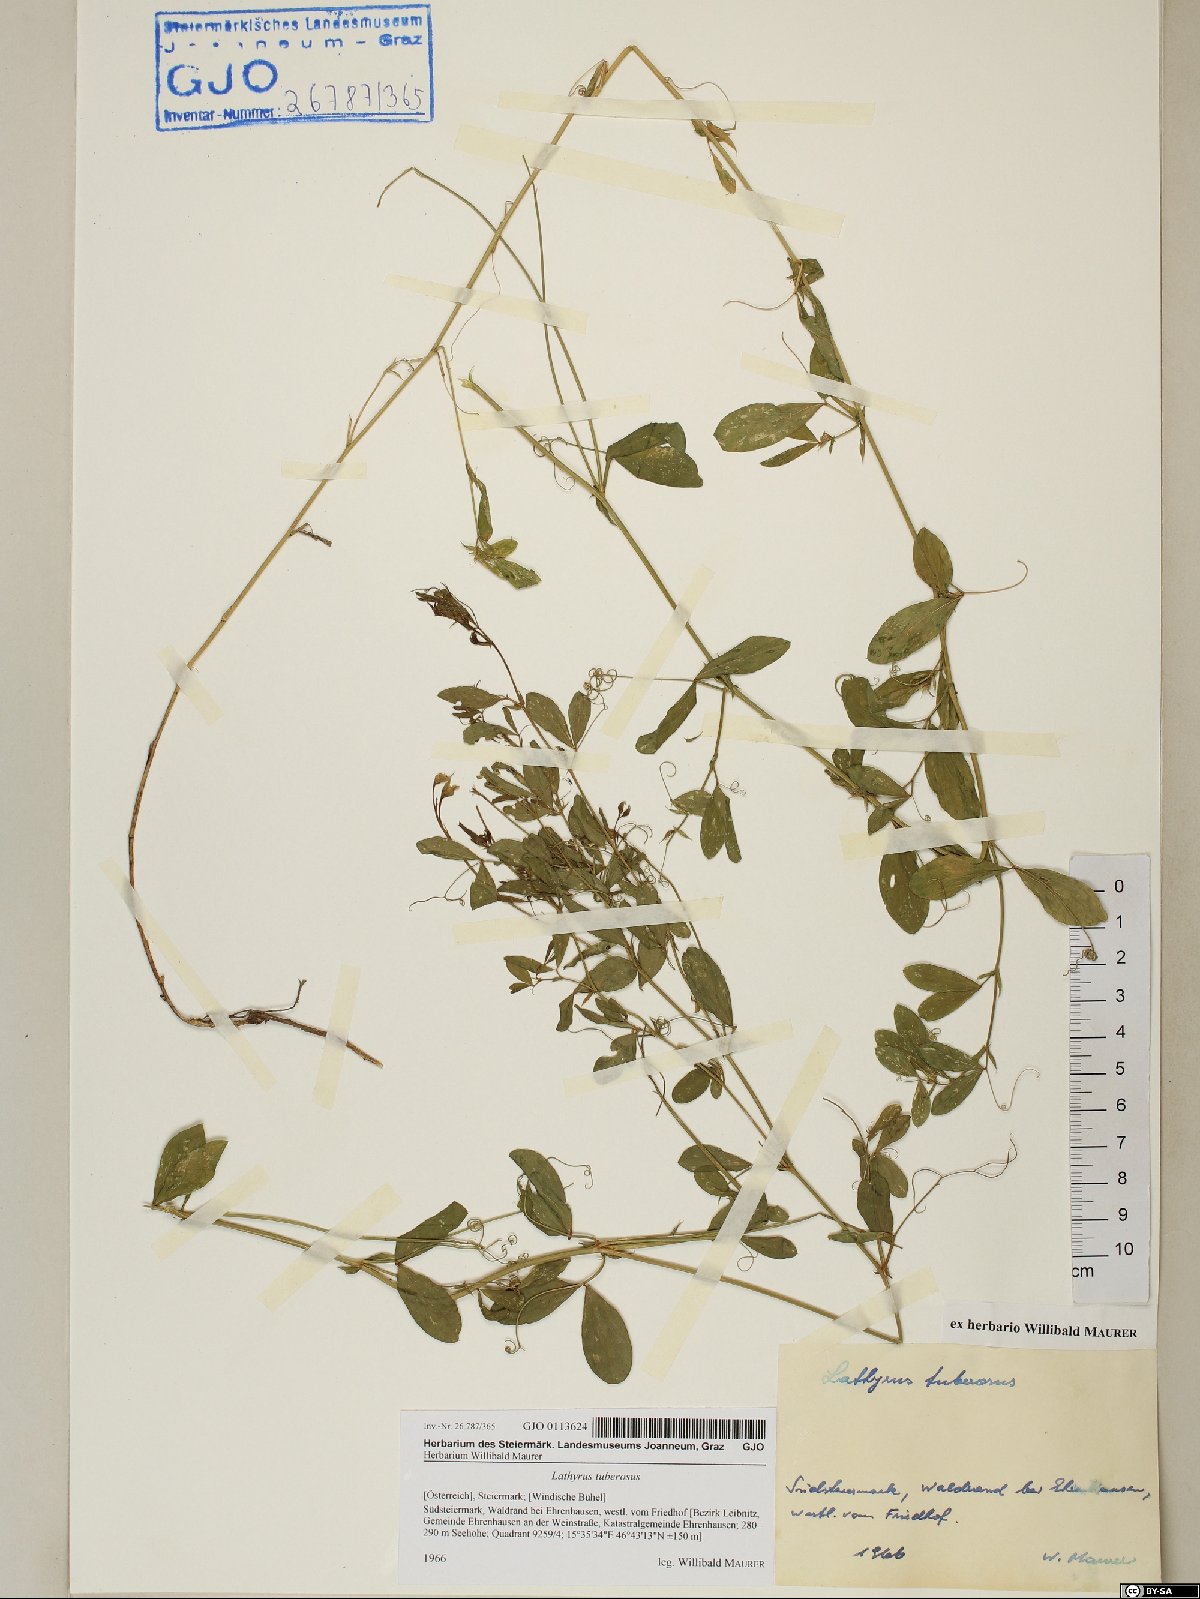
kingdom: Plantae
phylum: Tracheophyta
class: Magnoliopsida
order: Fabales
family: Fabaceae
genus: Lathyrus
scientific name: Lathyrus tuberosus
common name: Tuberous pea
